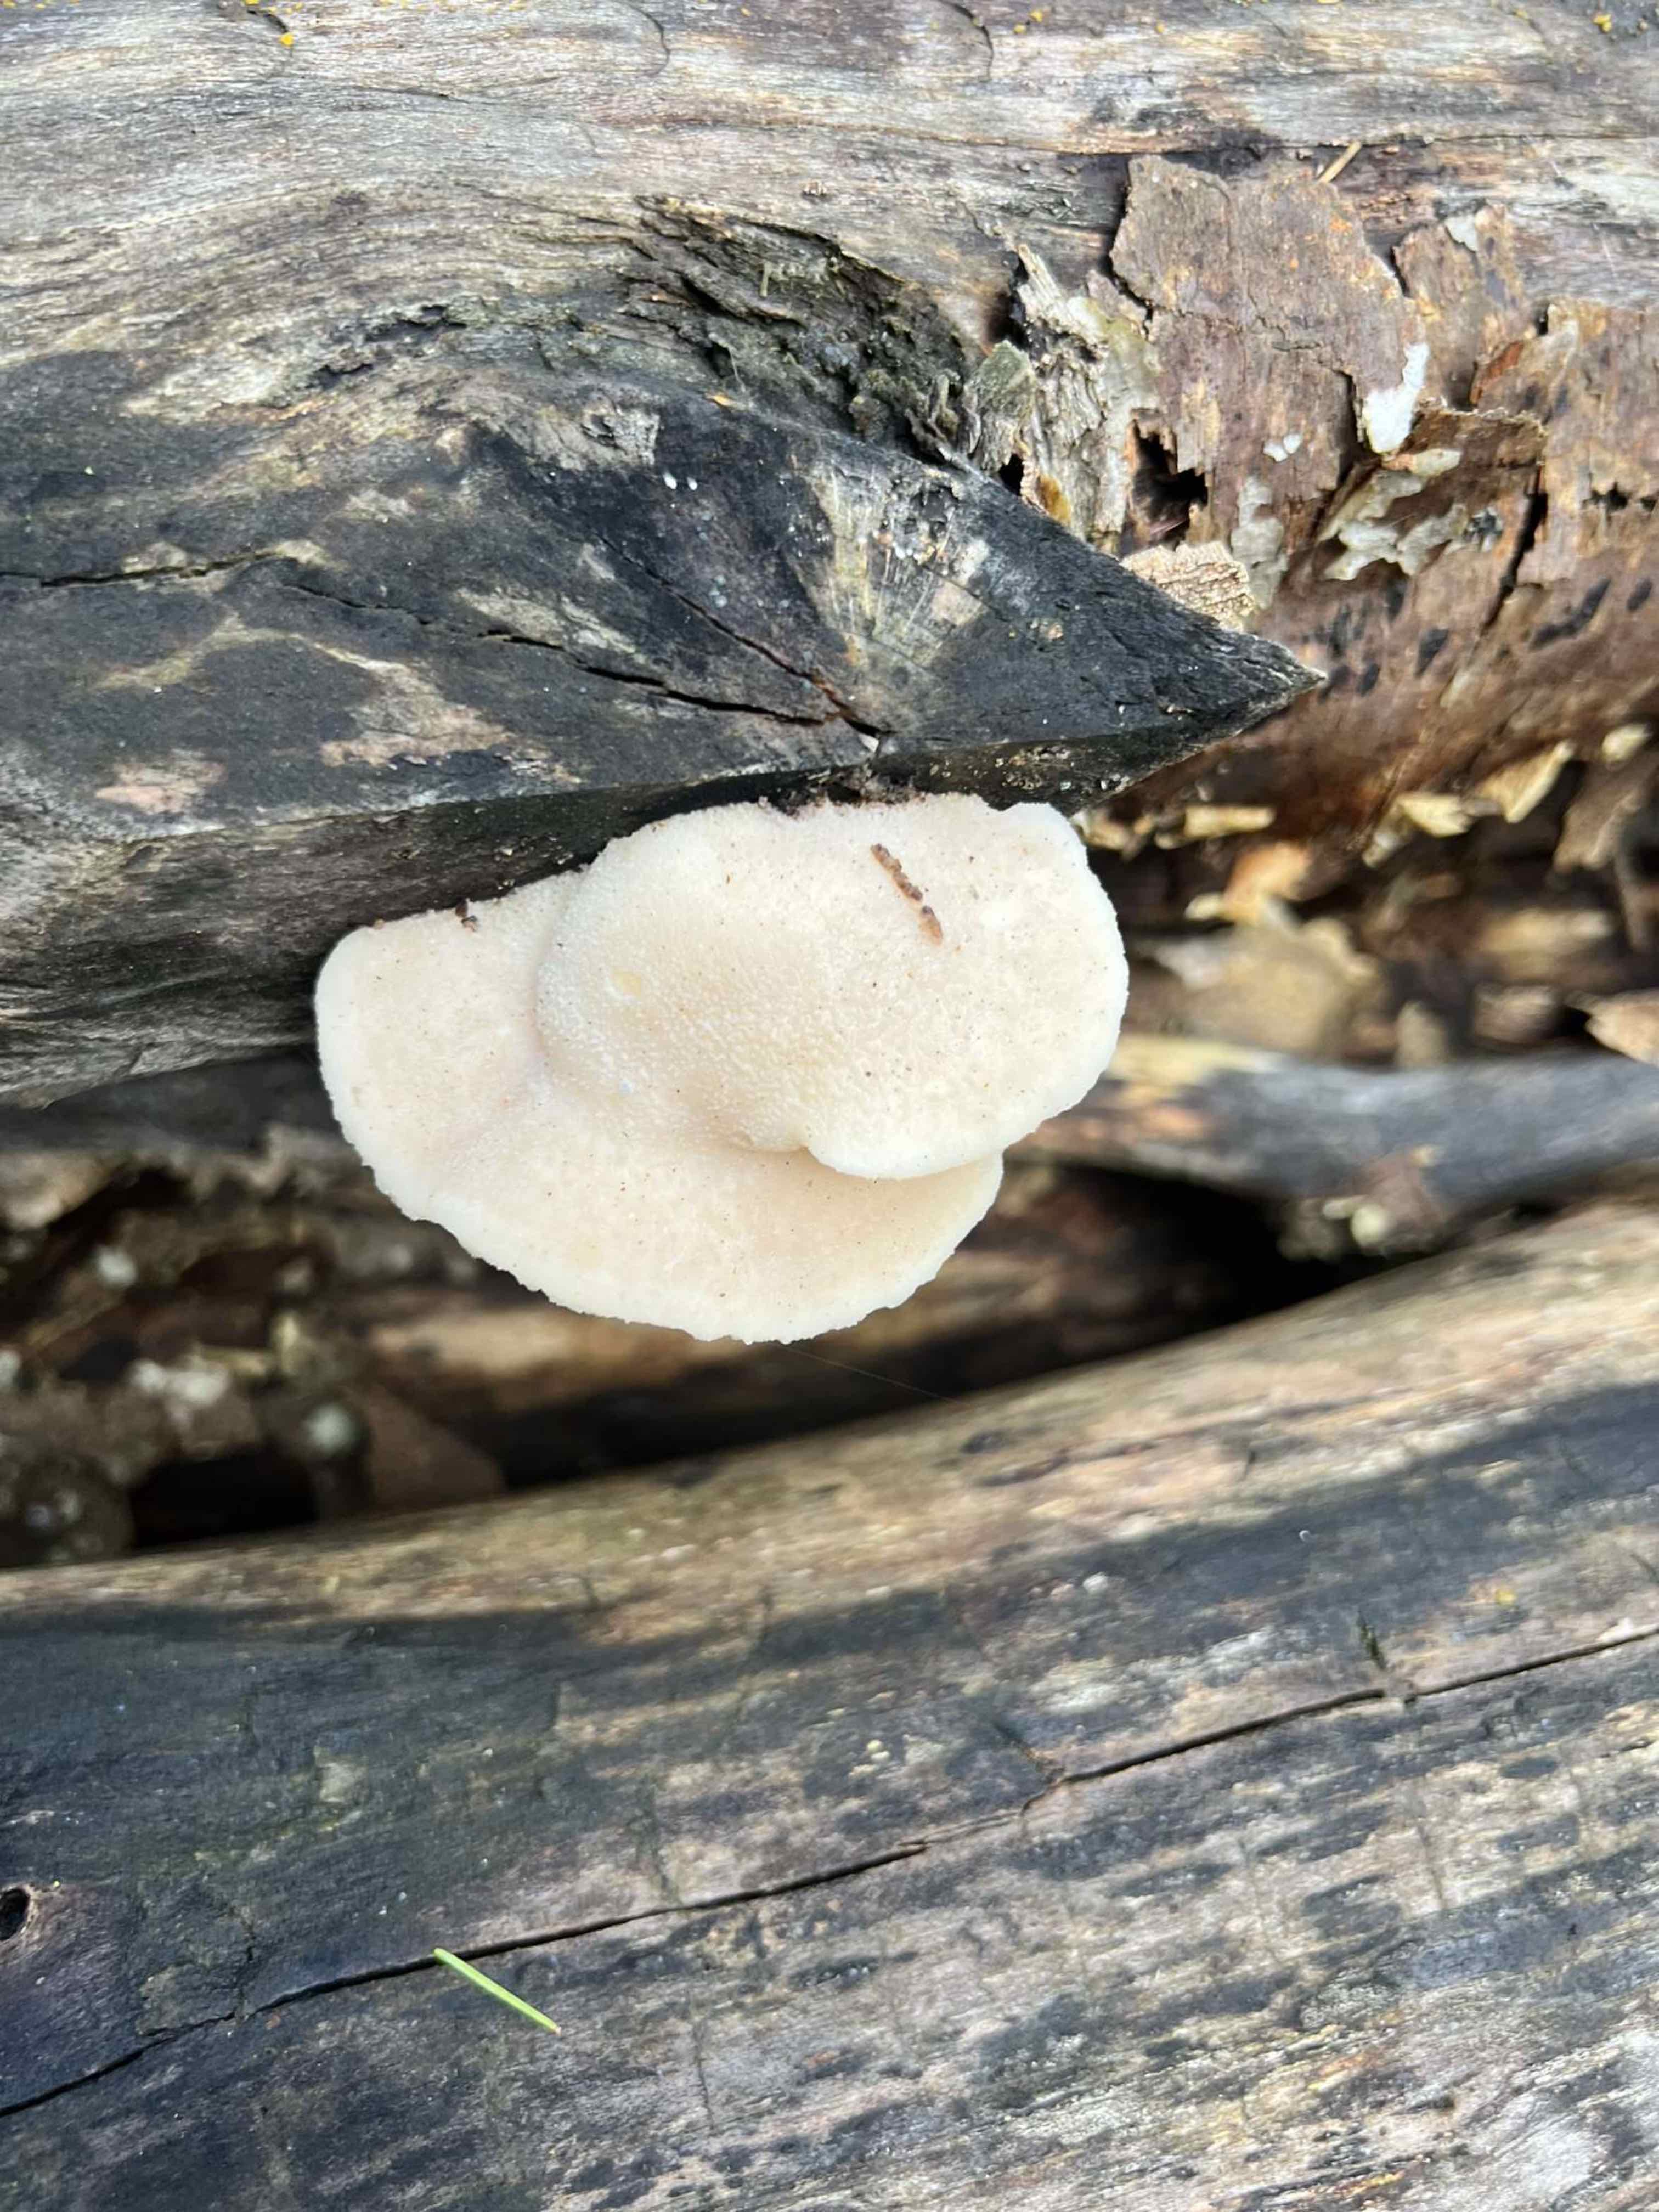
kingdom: Fungi
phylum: Basidiomycota
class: Agaricomycetes
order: Polyporales
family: Polyporaceae
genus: Trametes
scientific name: Trametes hirsuta
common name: håret læderporesvamp
